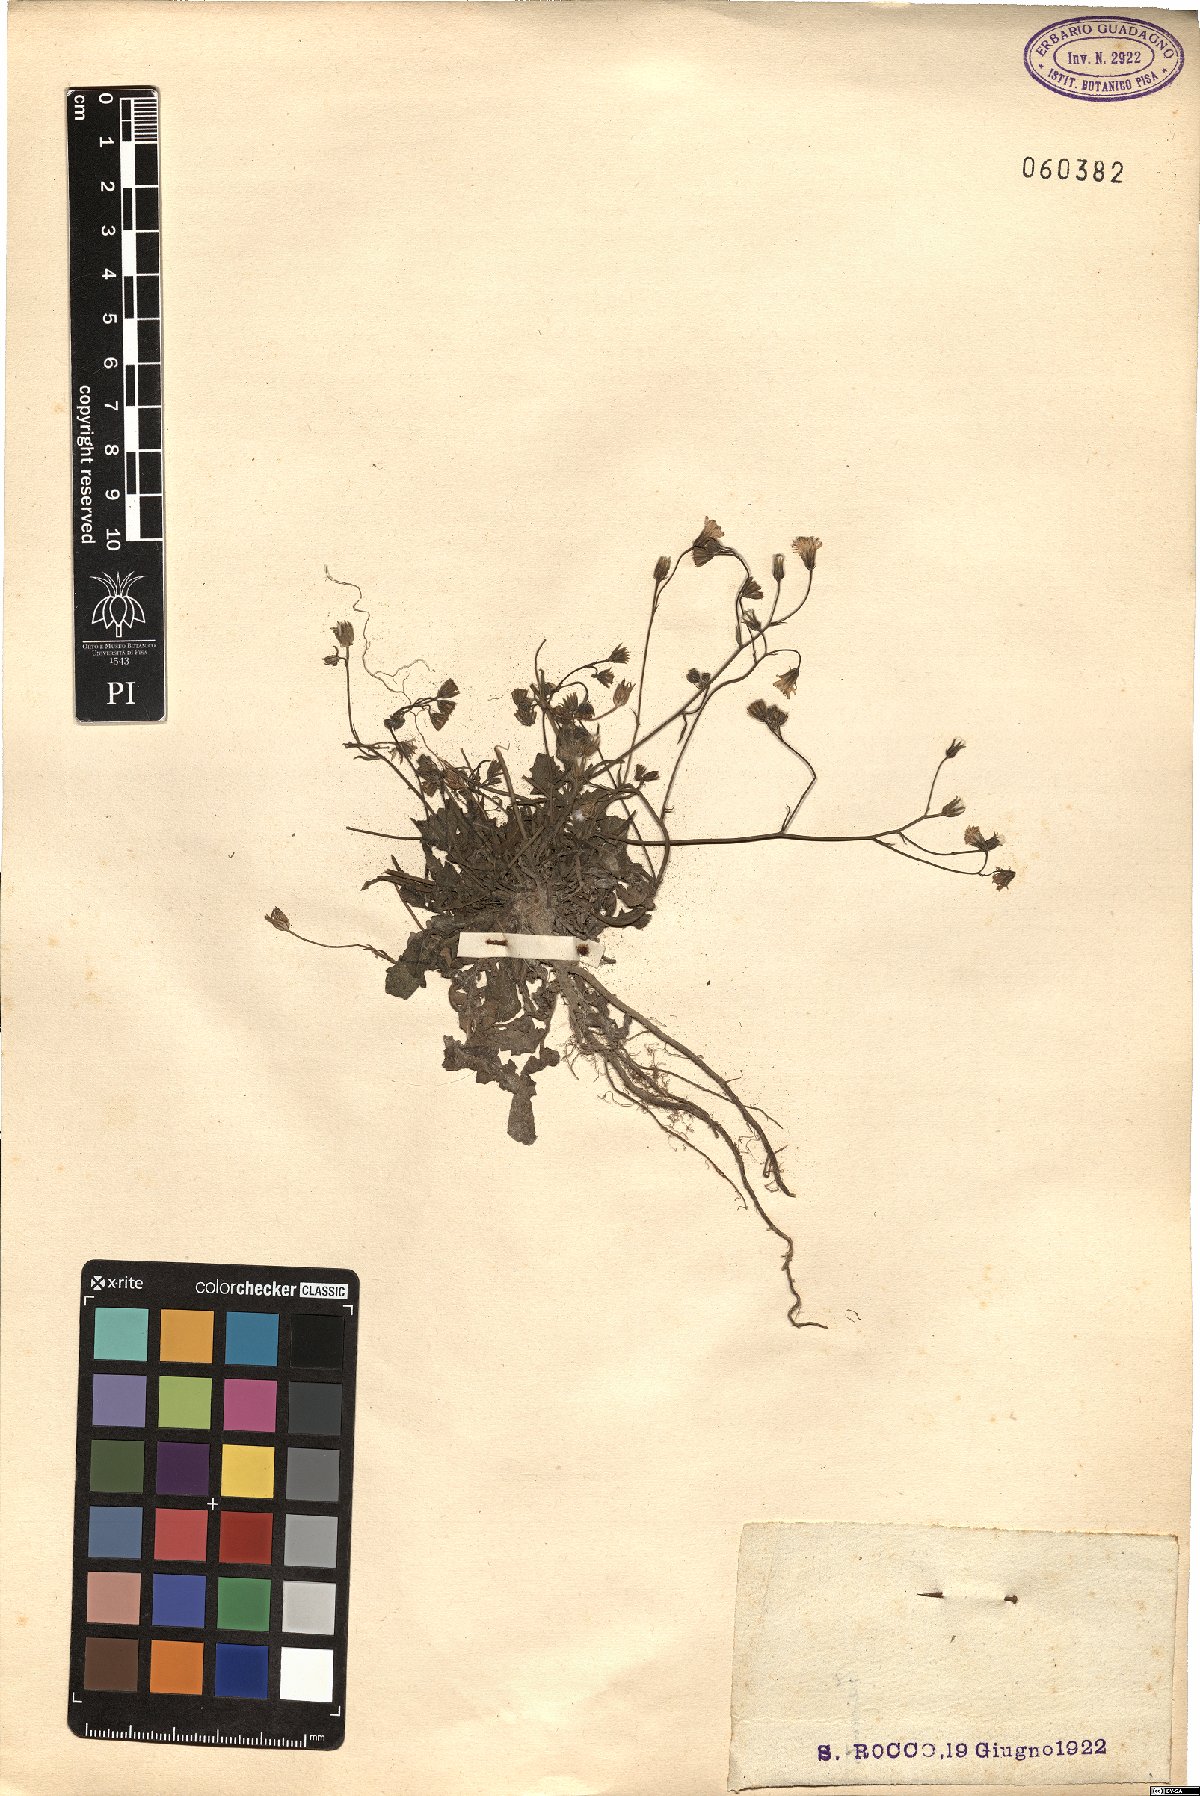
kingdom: Plantae
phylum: Tracheophyta
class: Magnoliopsida
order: Asterales
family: Asteraceae
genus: Crepis
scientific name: Crepis
